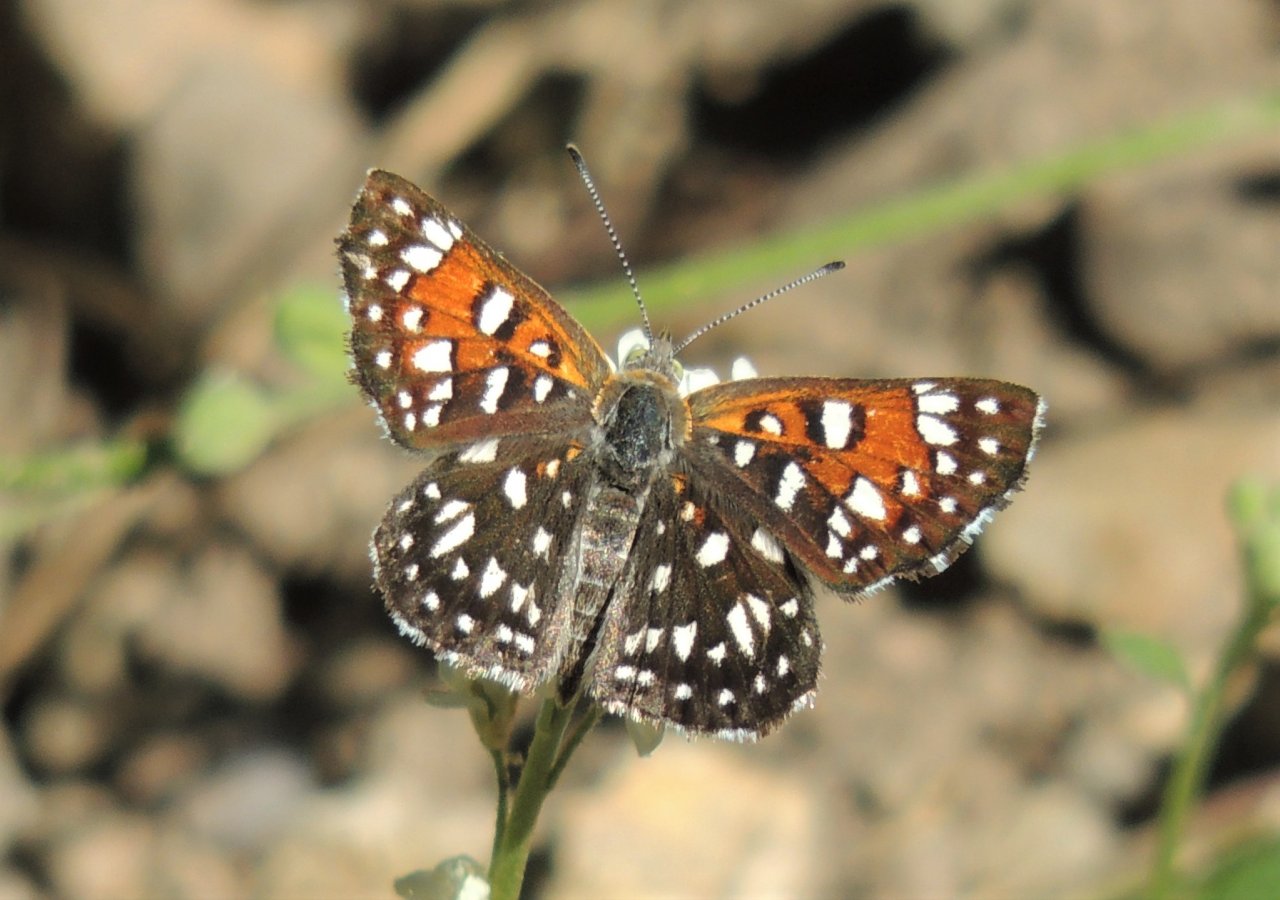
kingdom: Animalia
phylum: Arthropoda
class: Insecta
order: Lepidoptera
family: Riodinidae
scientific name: Riodinidae
